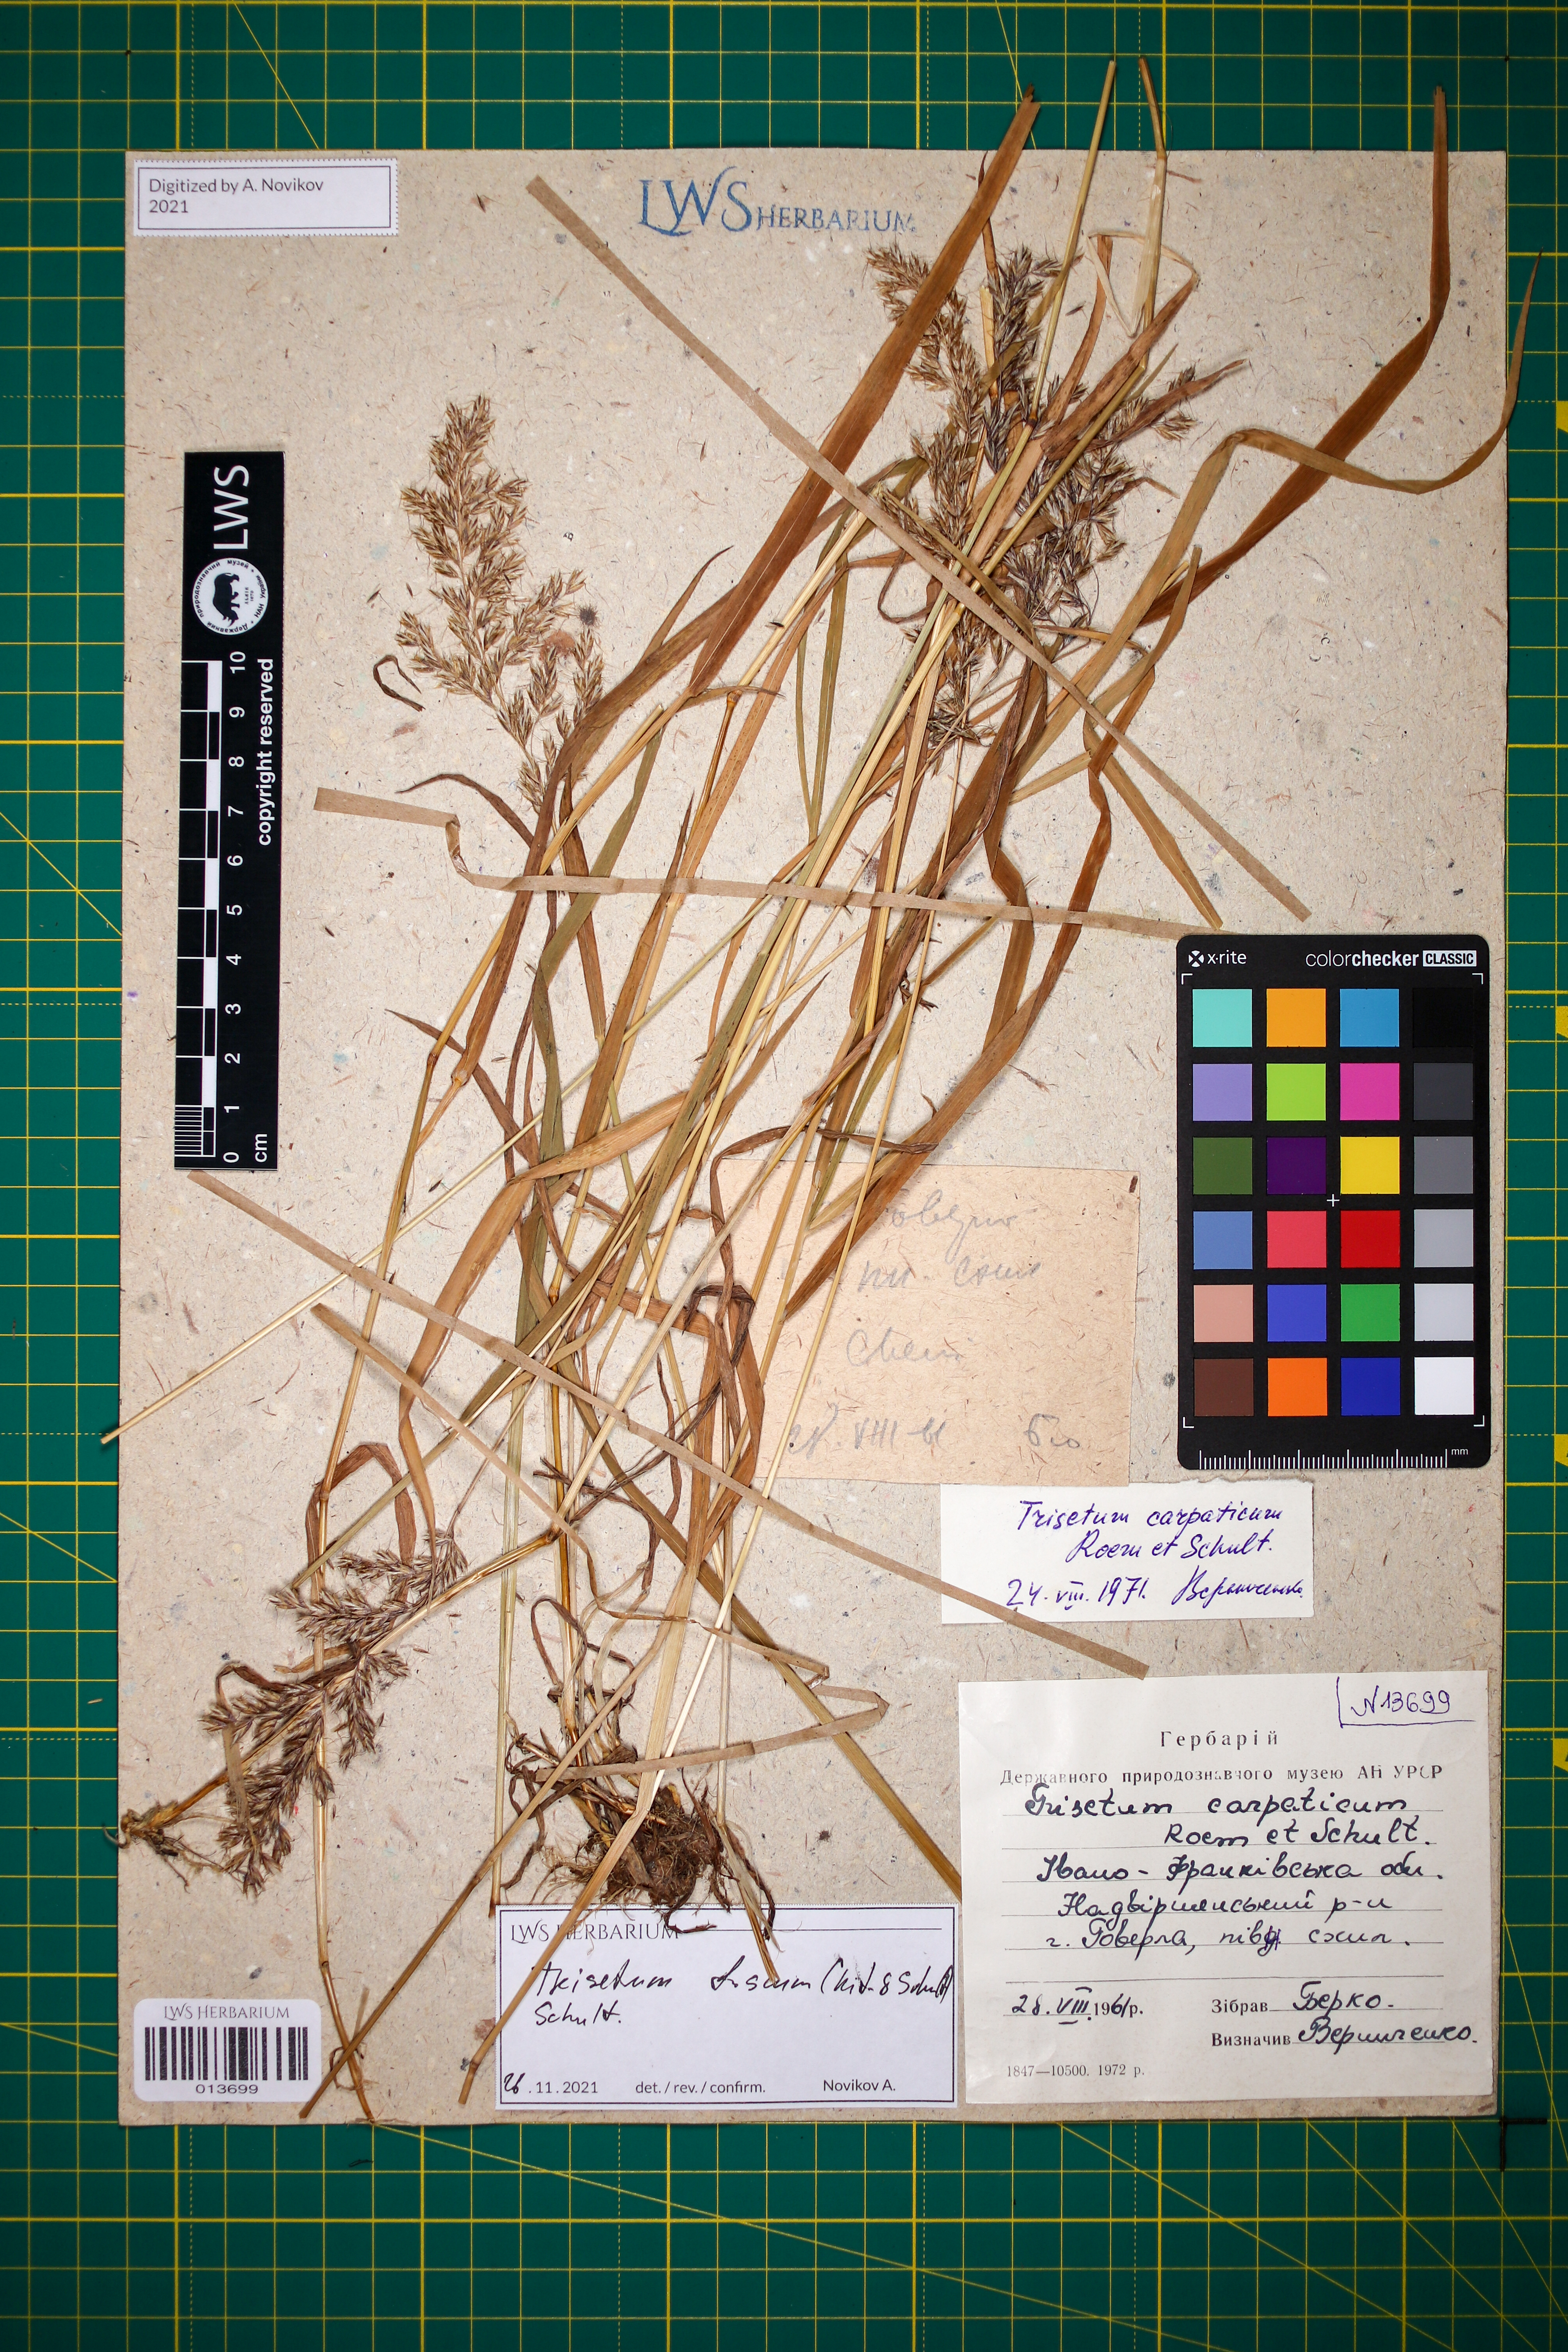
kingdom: Plantae
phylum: Tracheophyta
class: Liliopsida
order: Poales
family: Poaceae
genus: Trisetum
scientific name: Trisetum fuscum
